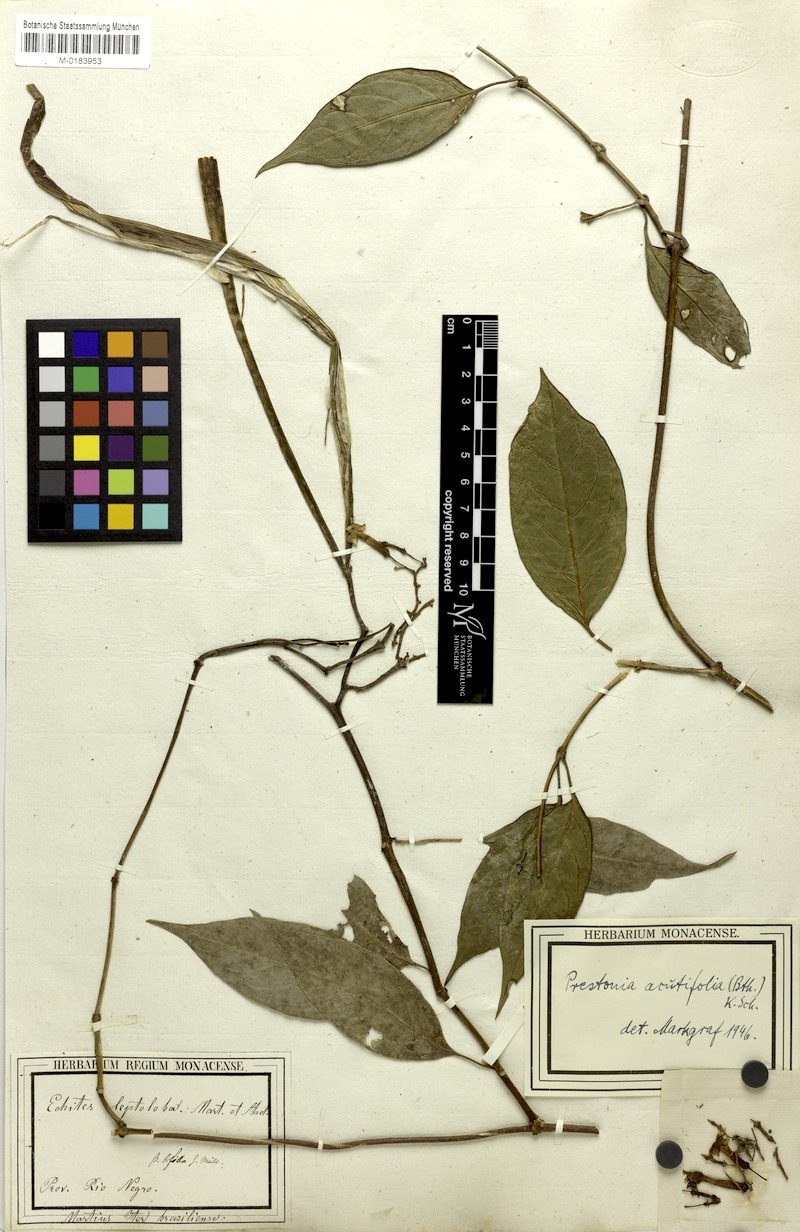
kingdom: Plantae
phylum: Tracheophyta
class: Magnoliopsida
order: Gentianales
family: Apocynaceae
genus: Prestonia
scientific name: Prestonia quinquangularis
